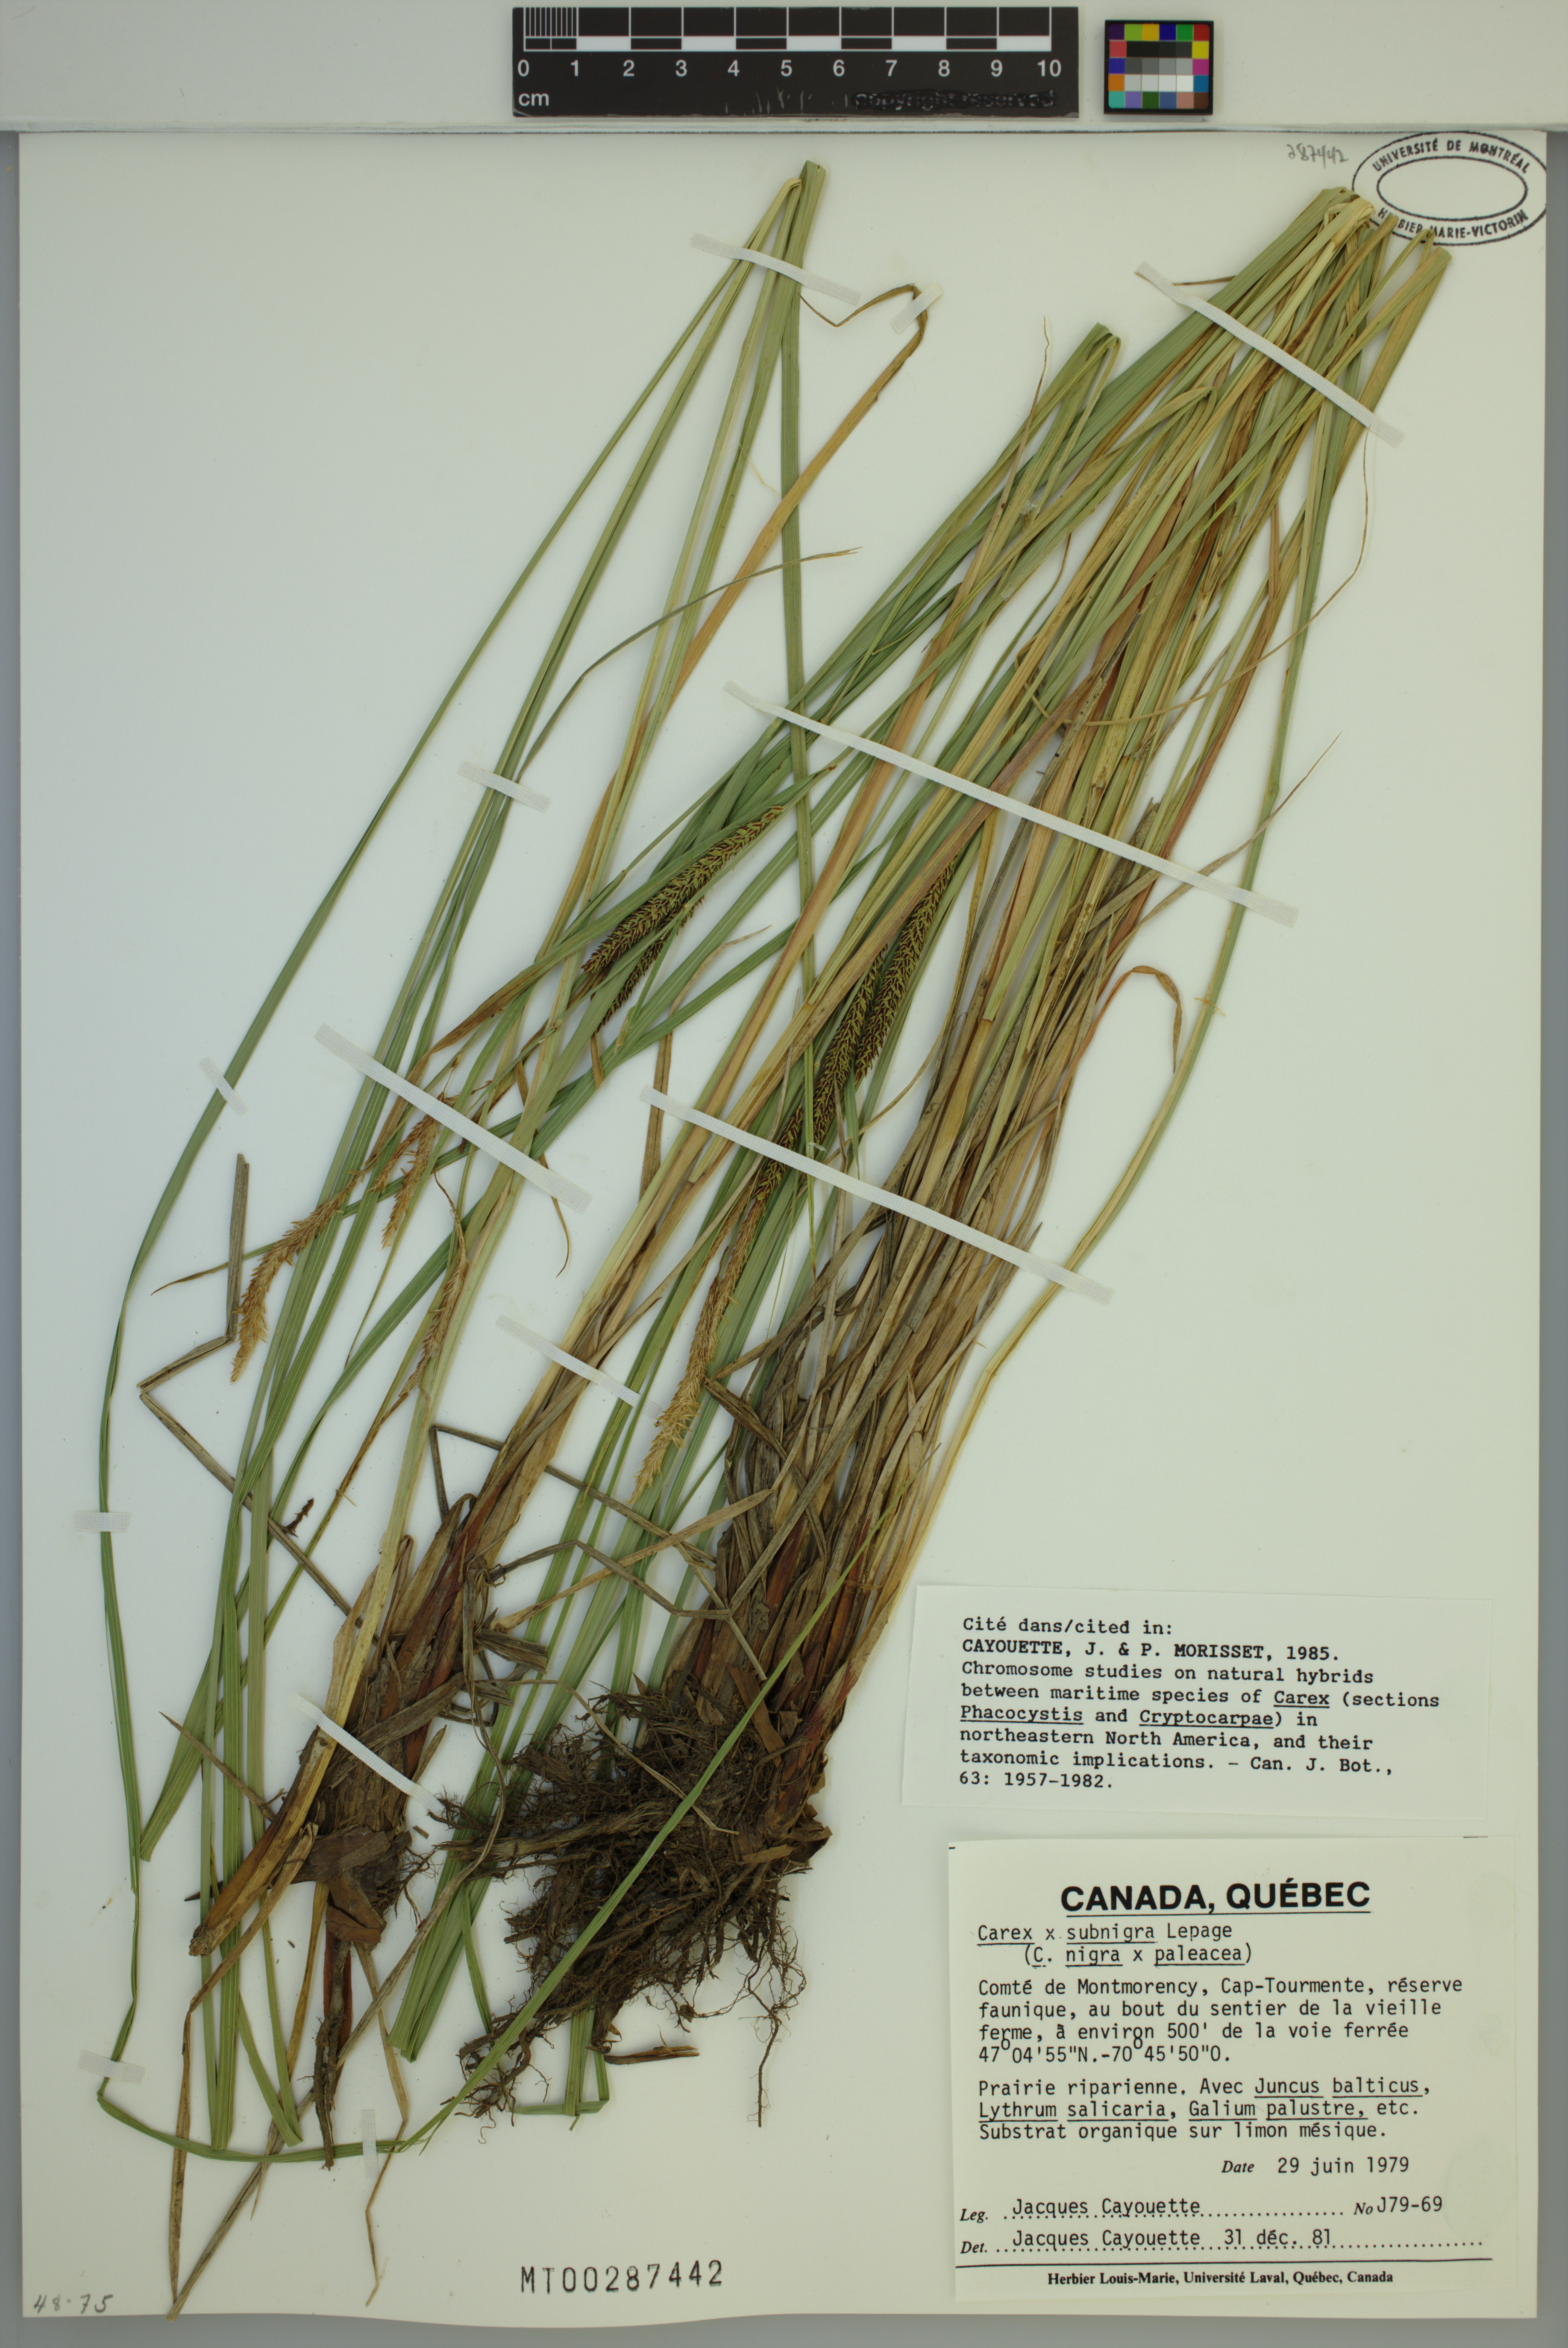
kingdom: Plantae
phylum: Tracheophyta
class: Liliopsida
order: Poales
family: Cyperaceae
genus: Carex
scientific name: Carex vacillans
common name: Sedge
